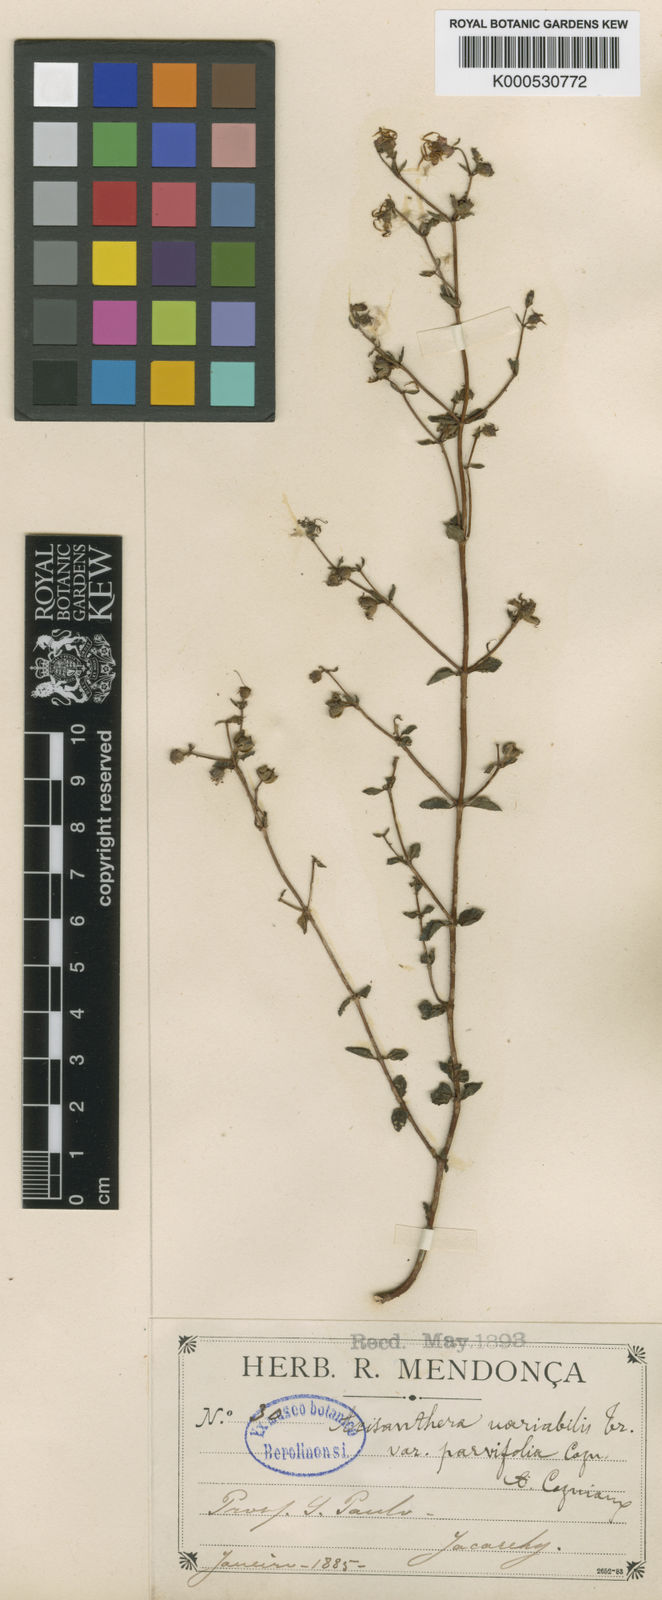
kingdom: Plantae
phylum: Tracheophyta
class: Magnoliopsida
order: Myrtales
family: Melastomataceae
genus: Acisanthera
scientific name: Acisanthera variabilis
